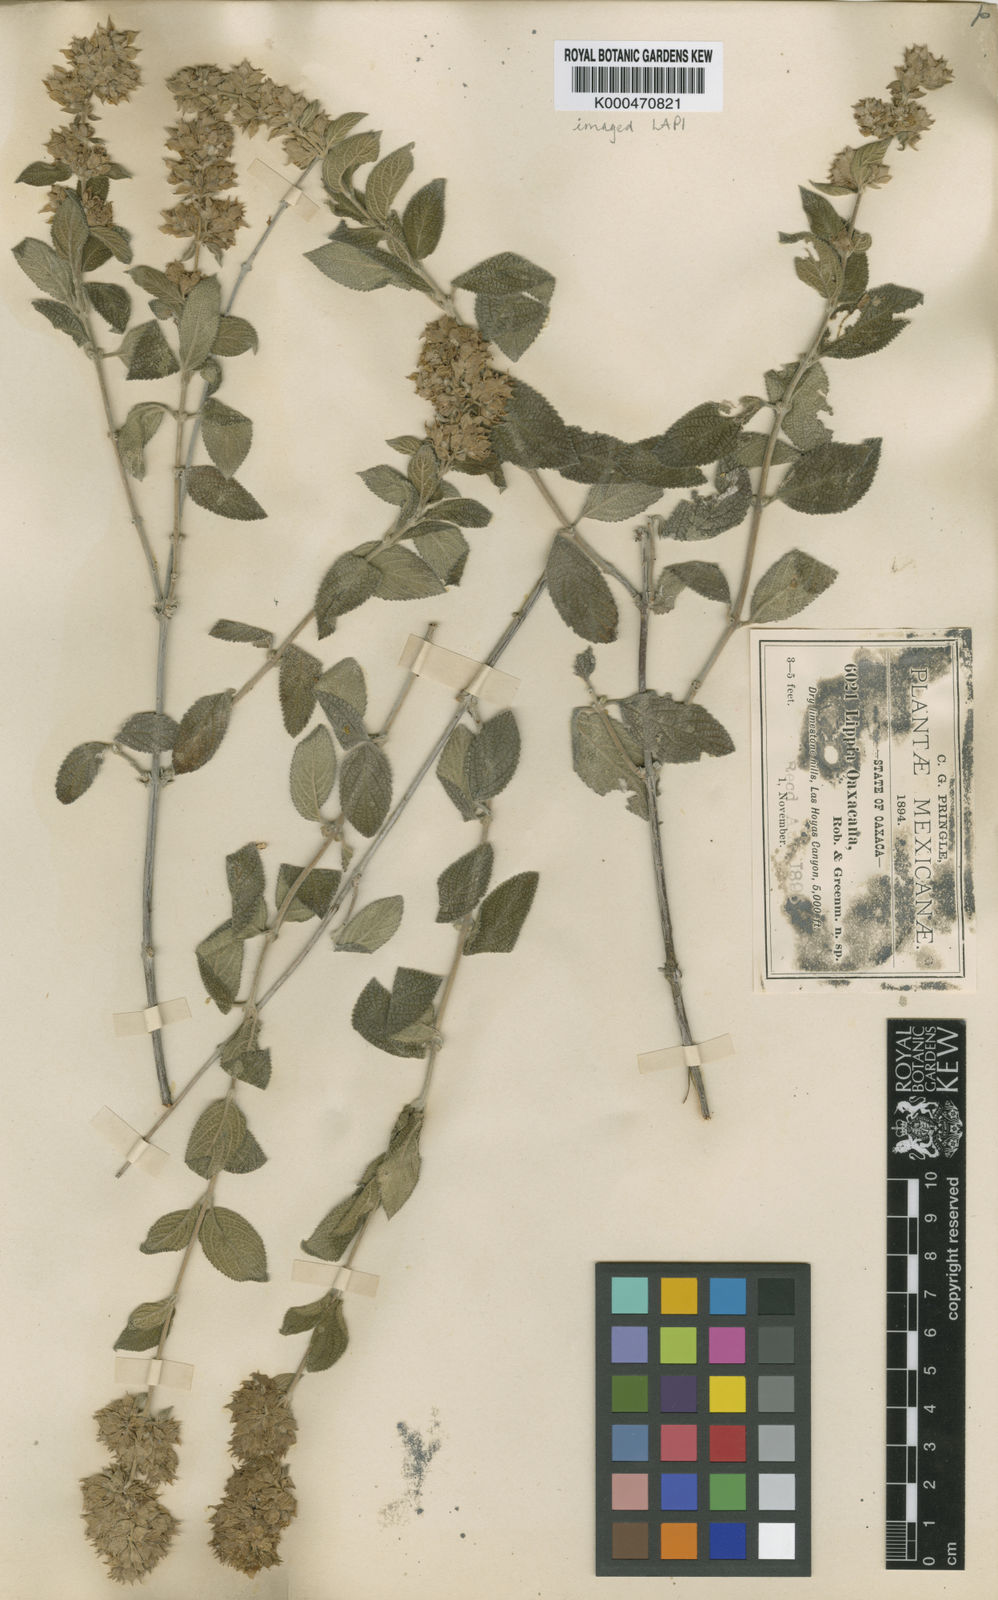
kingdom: Plantae
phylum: Tracheophyta
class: Magnoliopsida
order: Lamiales
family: Verbenaceae
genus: Lippia
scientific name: Lippia oaxacana
